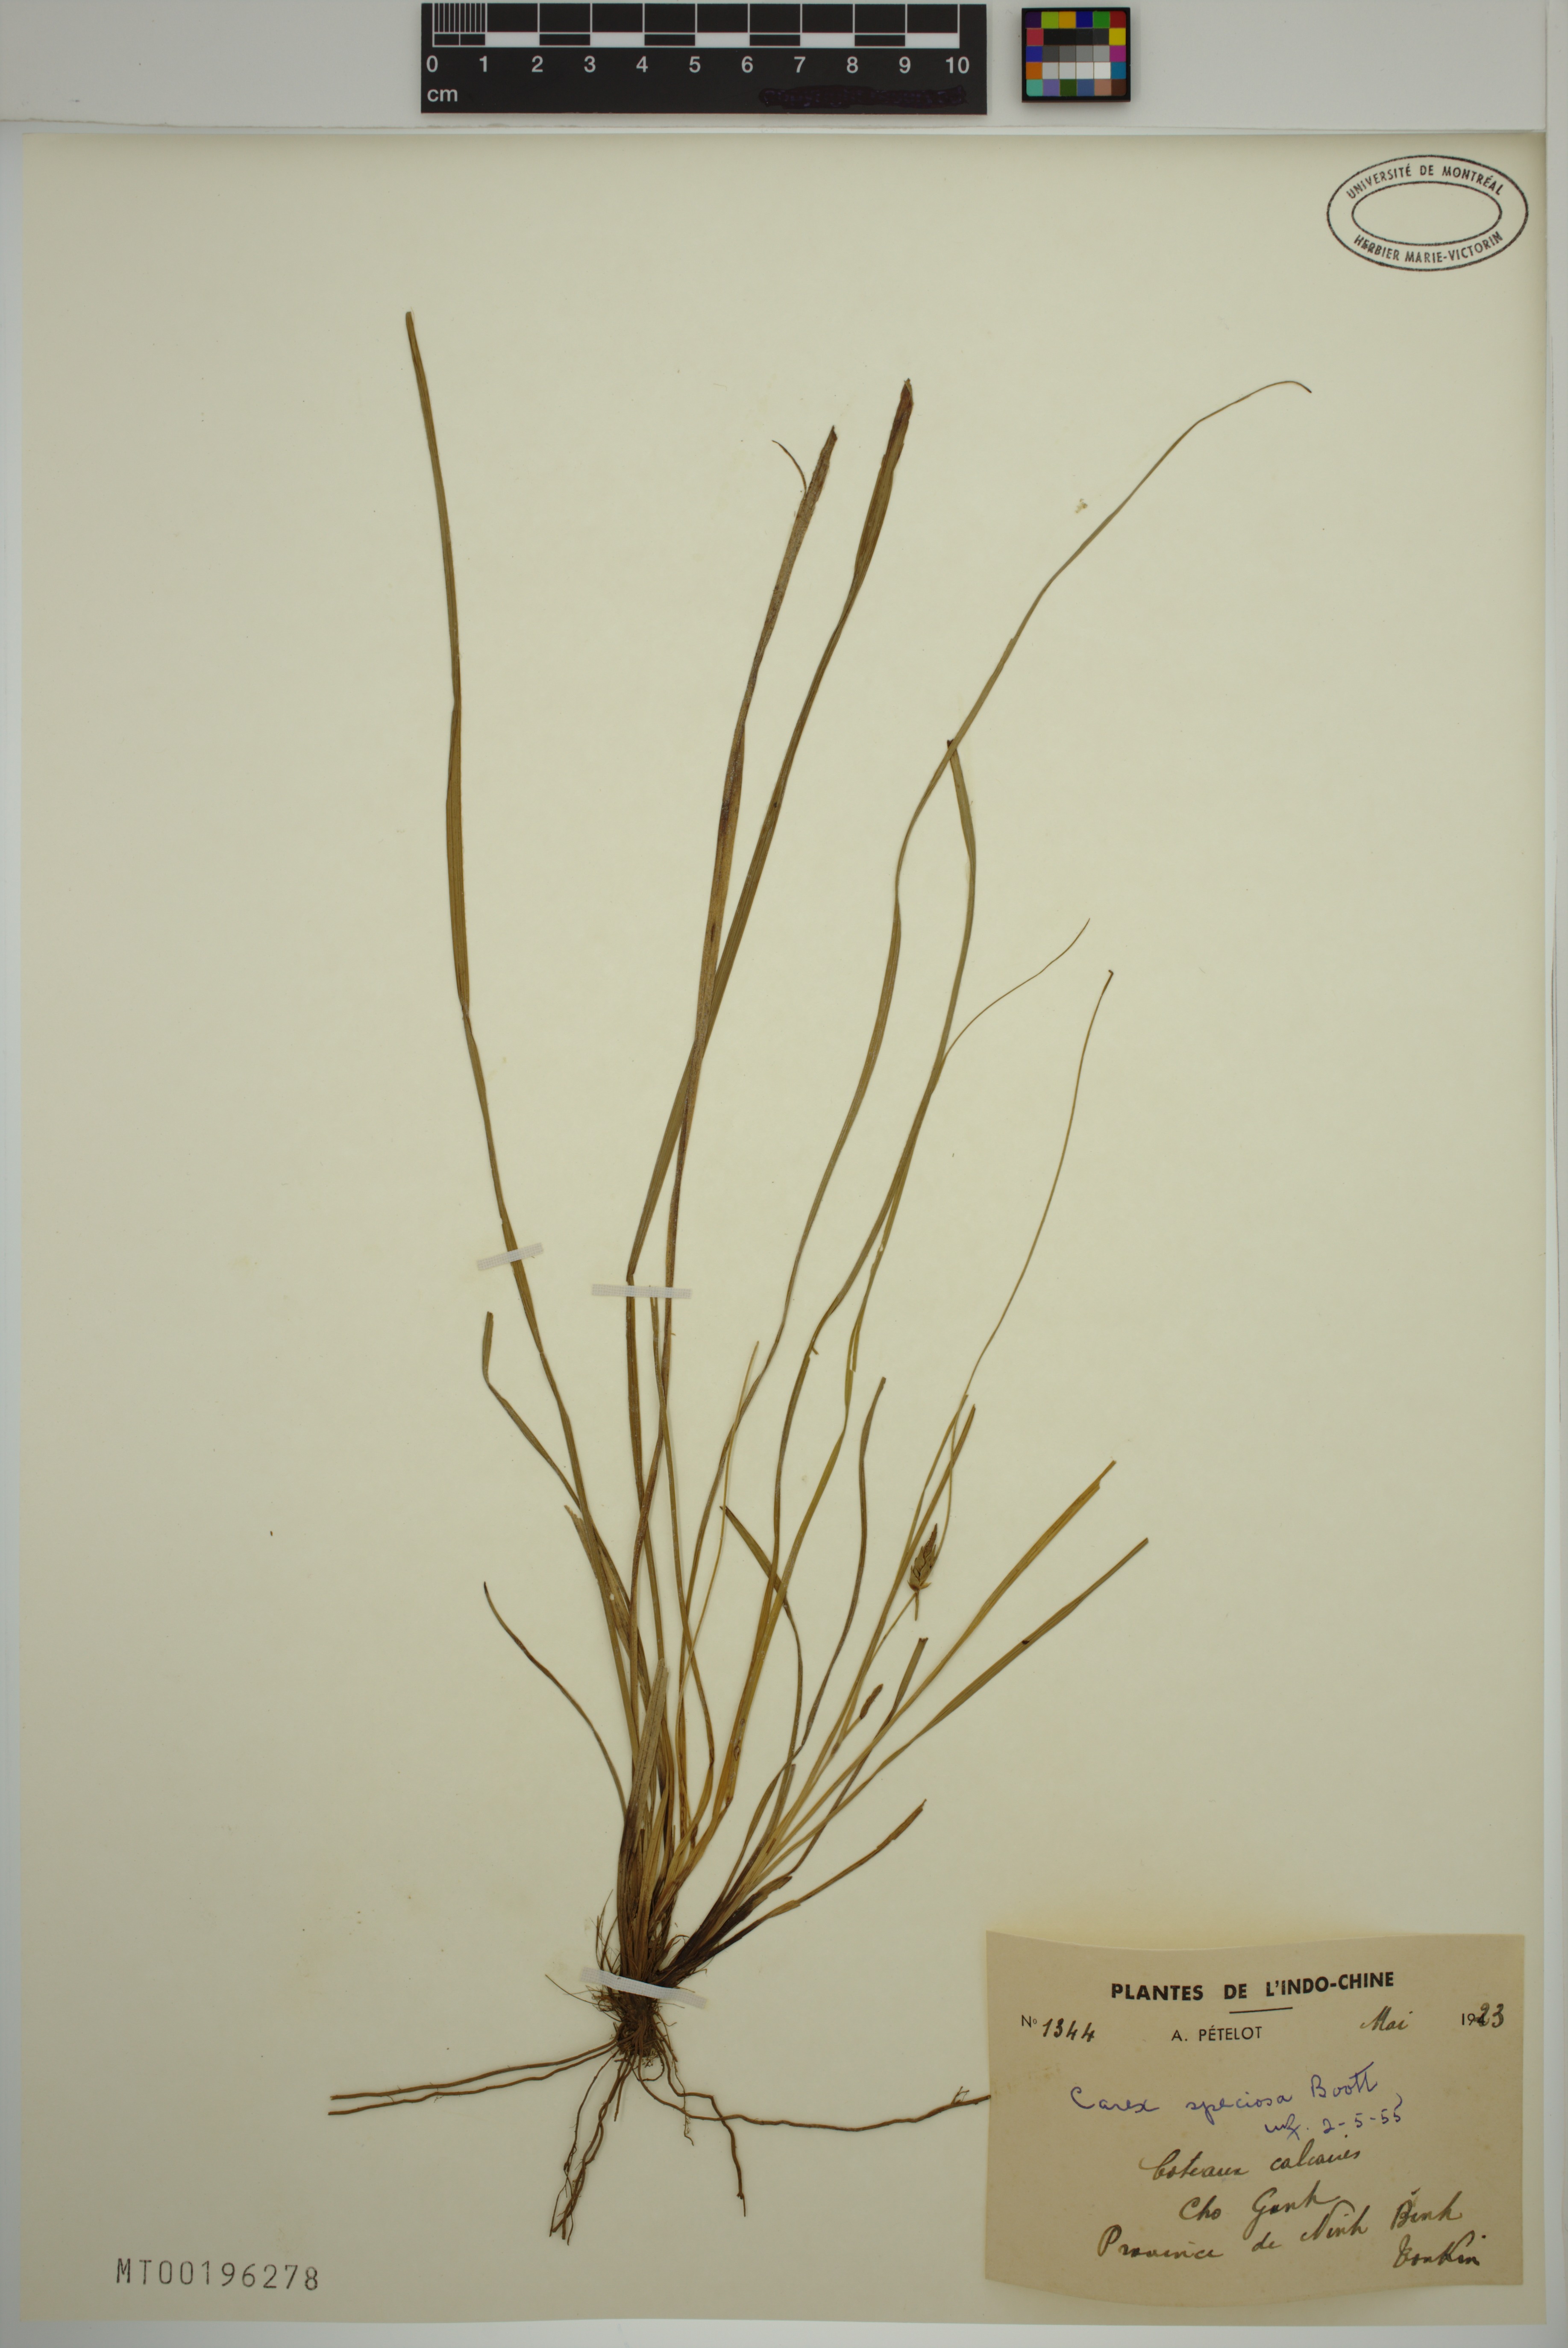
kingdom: Plantae
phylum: Tracheophyta
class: Liliopsida
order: Poales
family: Cyperaceae
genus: Carex
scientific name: Carex speciosa
